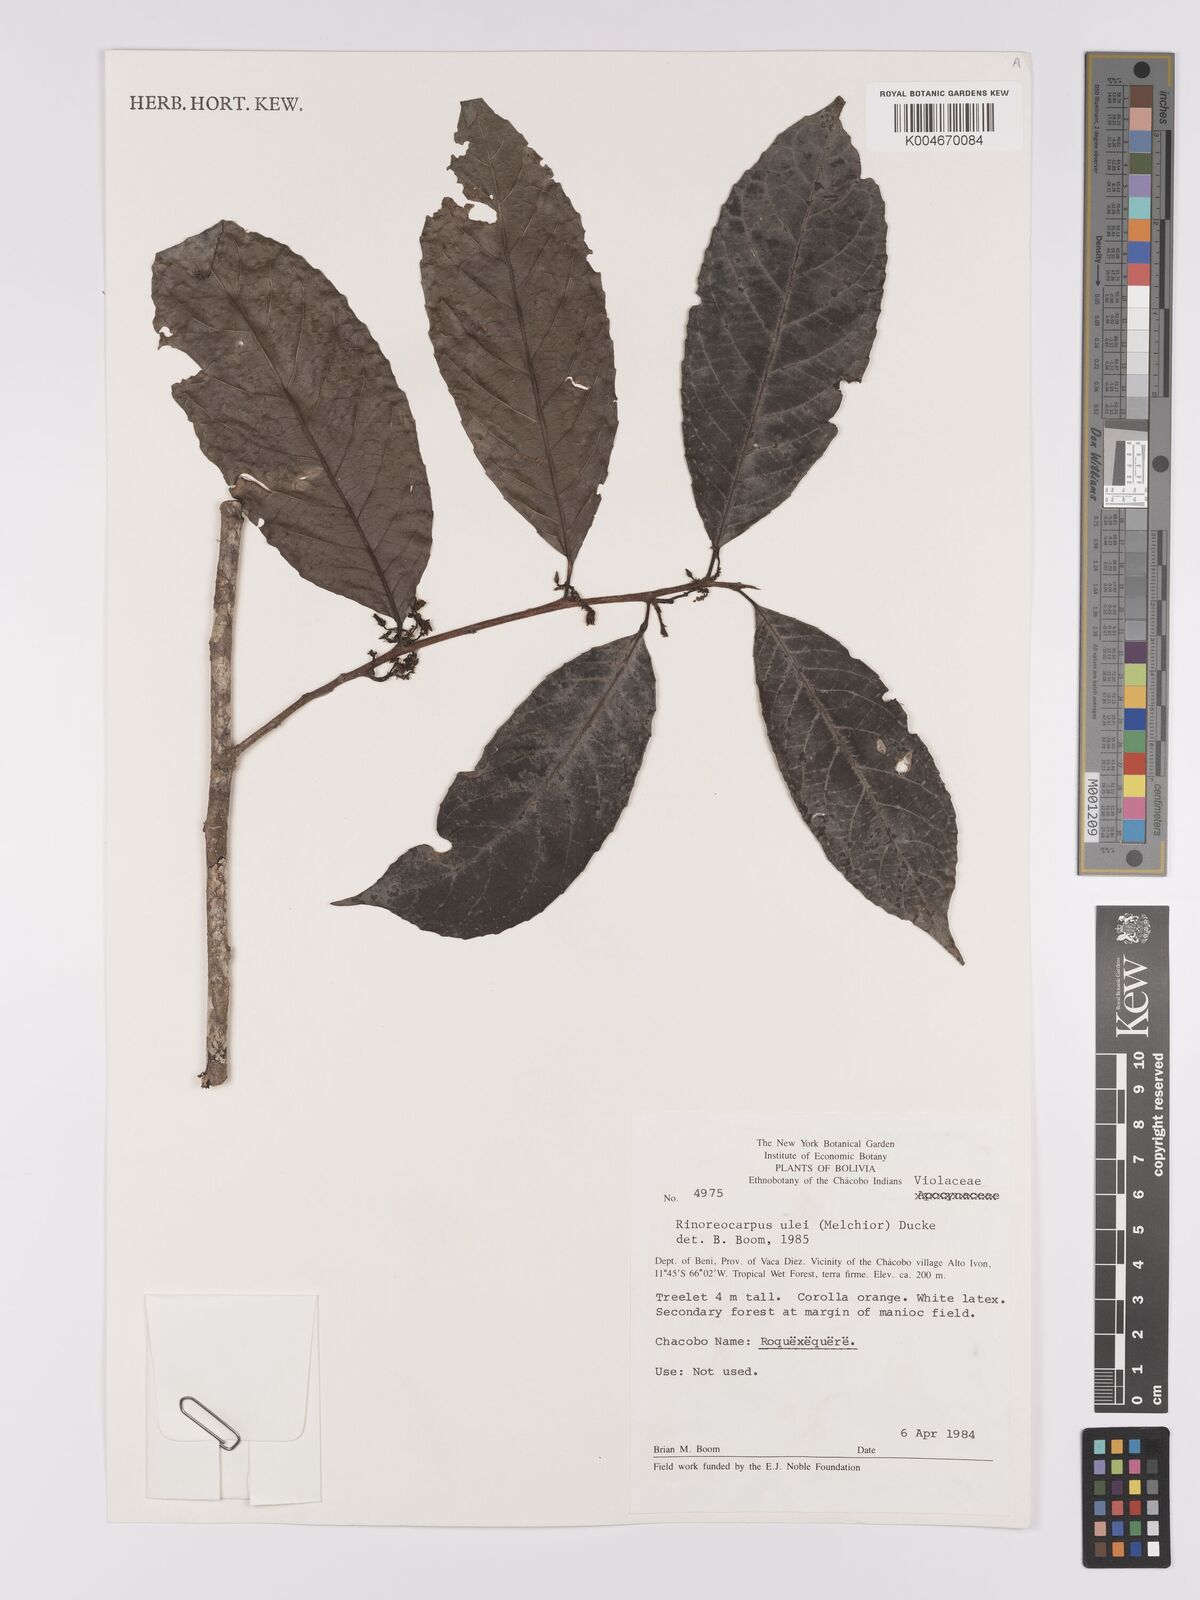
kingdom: Plantae
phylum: Tracheophyta
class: Magnoliopsida
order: Malpighiales
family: Violaceae
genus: Rinoreocarpus
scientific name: Rinoreocarpus ulei
